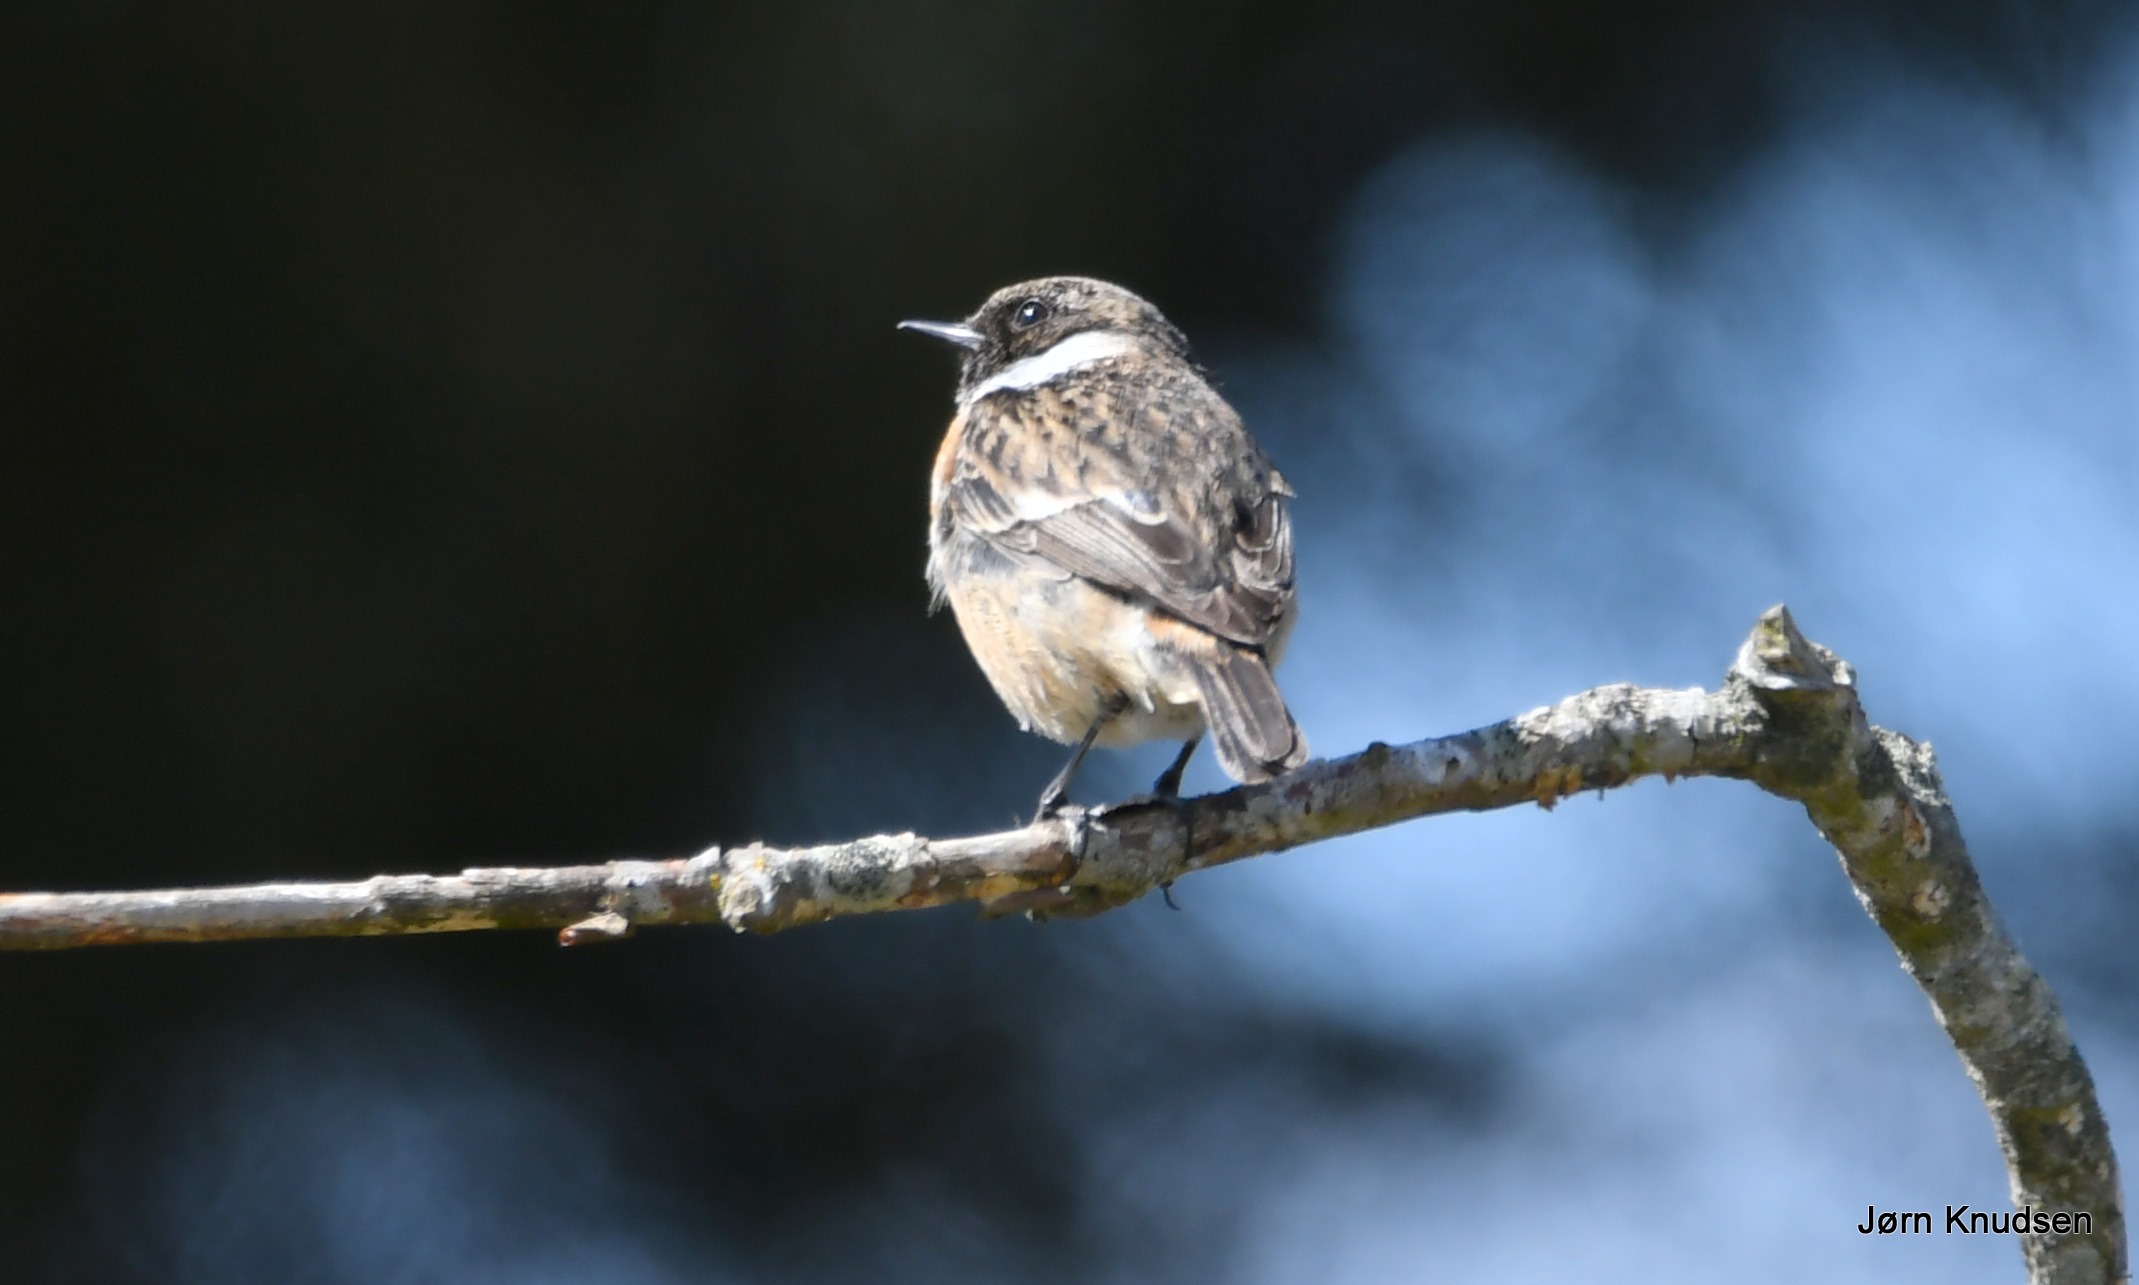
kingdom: Animalia
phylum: Chordata
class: Aves
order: Passeriformes
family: Muscicapidae
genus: Saxicola
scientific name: Saxicola rubicola
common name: Sortstrubet bynkefugl
